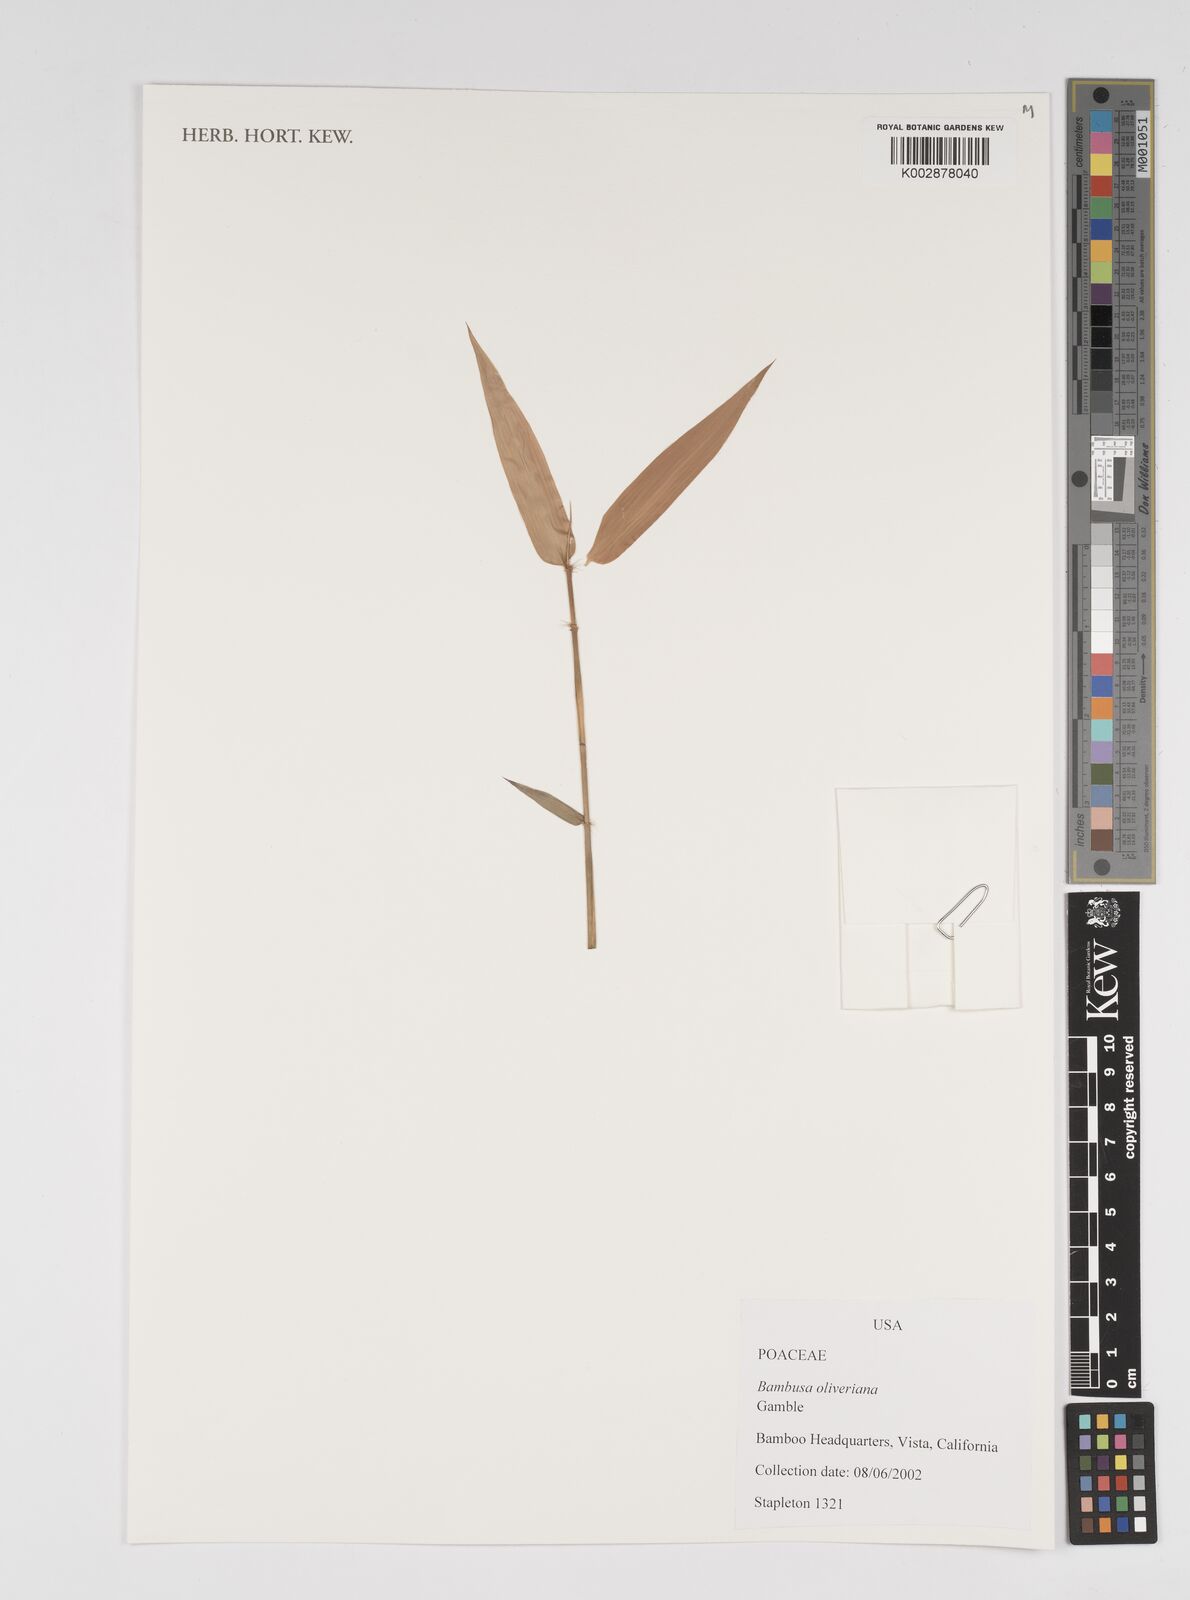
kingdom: Plantae
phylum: Tracheophyta
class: Liliopsida
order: Poales
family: Poaceae
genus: Bambusa
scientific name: Bambusa oliveriana
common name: Bush bamboo
